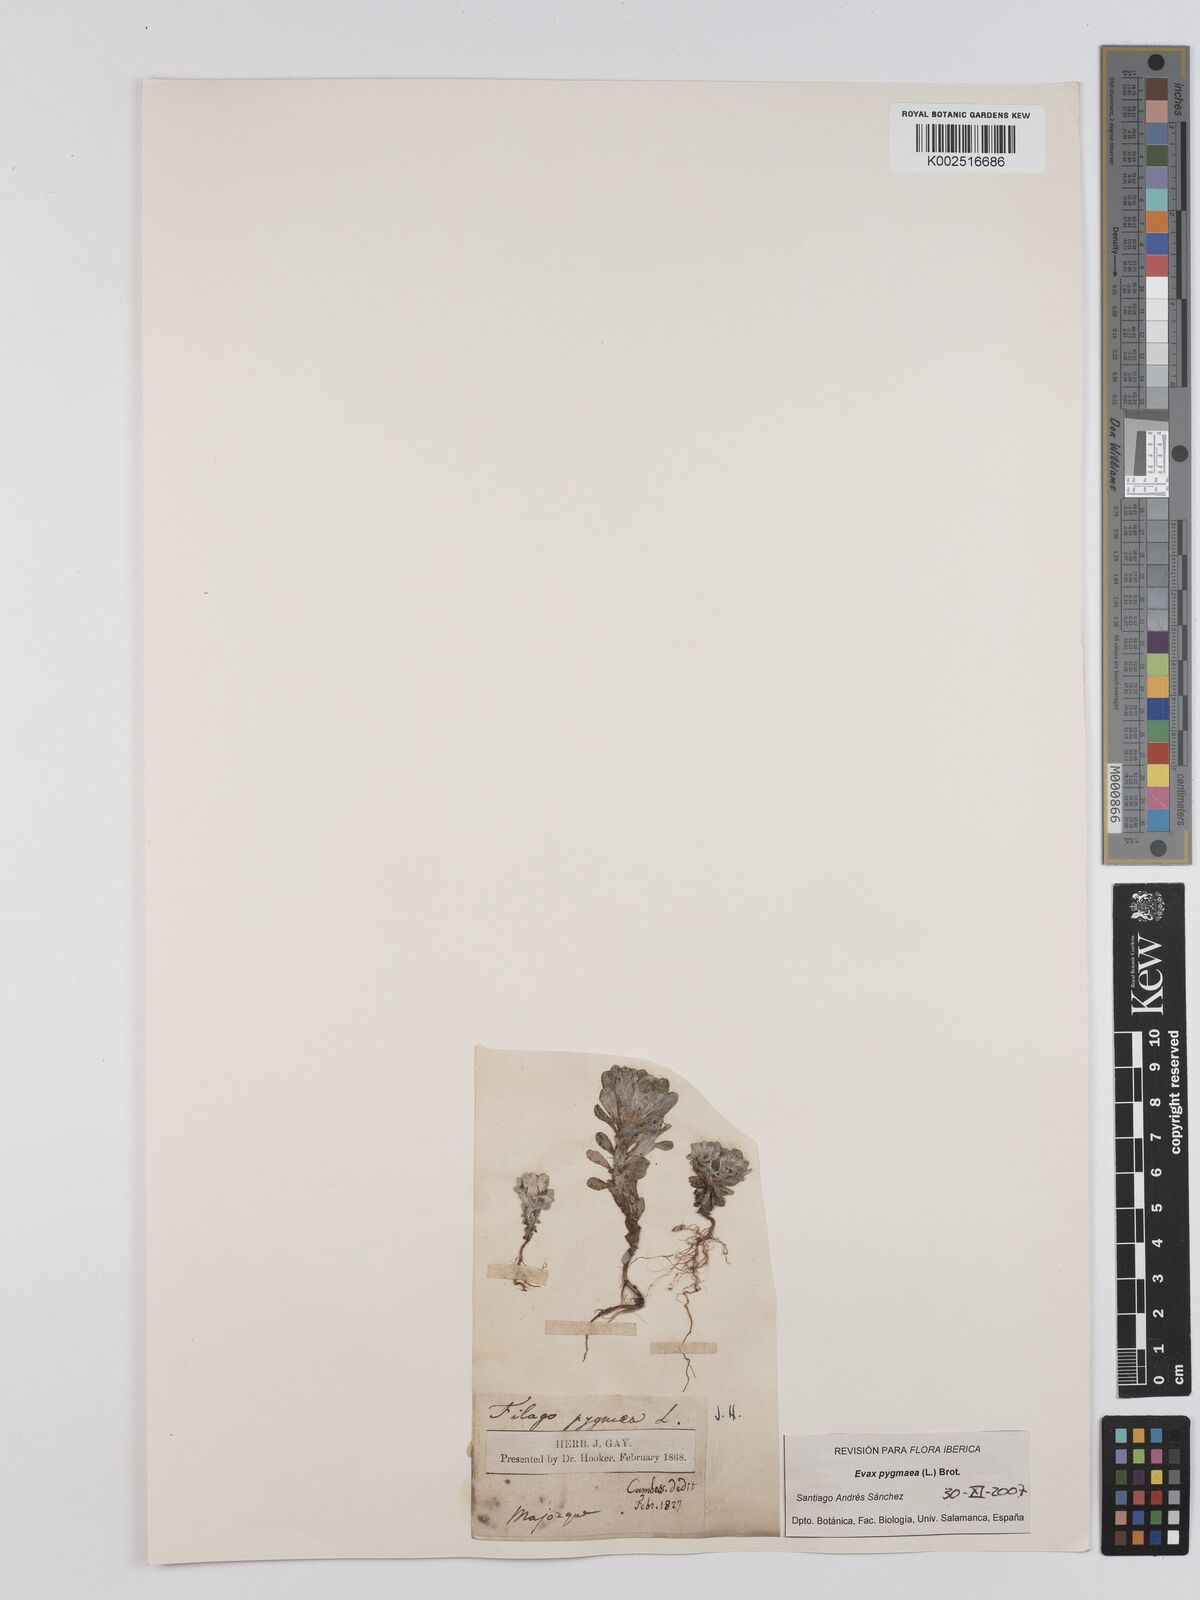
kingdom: Plantae
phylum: Tracheophyta
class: Magnoliopsida
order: Asterales
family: Asteraceae
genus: Filago
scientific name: Filago pygmaea
